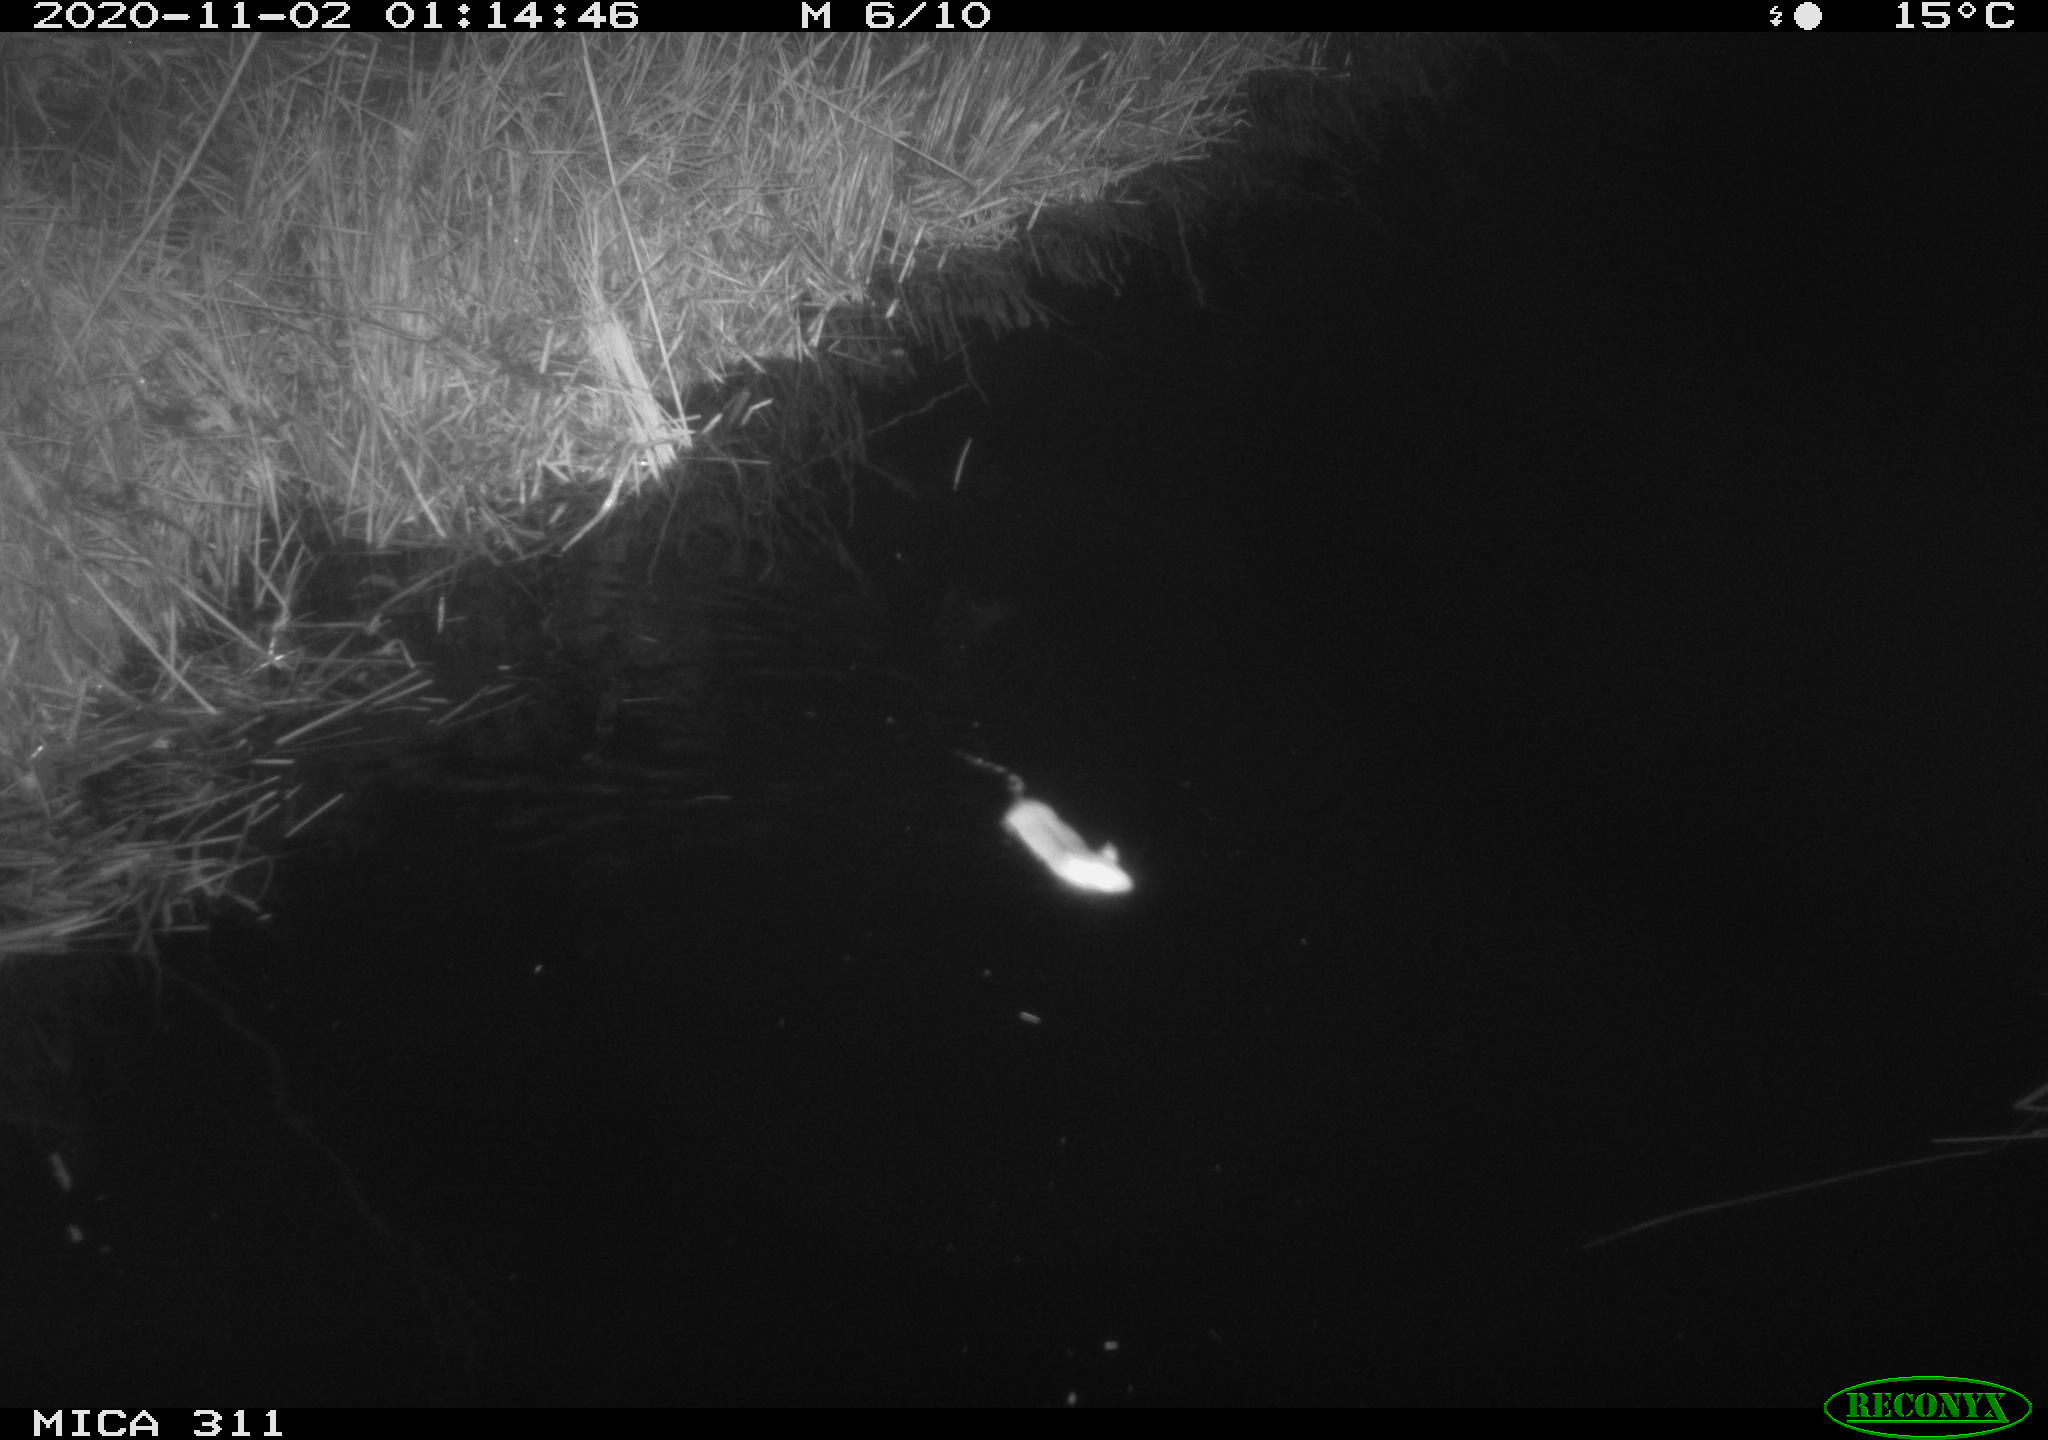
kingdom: Animalia
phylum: Chordata
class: Mammalia
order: Rodentia
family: Muridae
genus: Rattus
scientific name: Rattus norvegicus
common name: Brown rat
